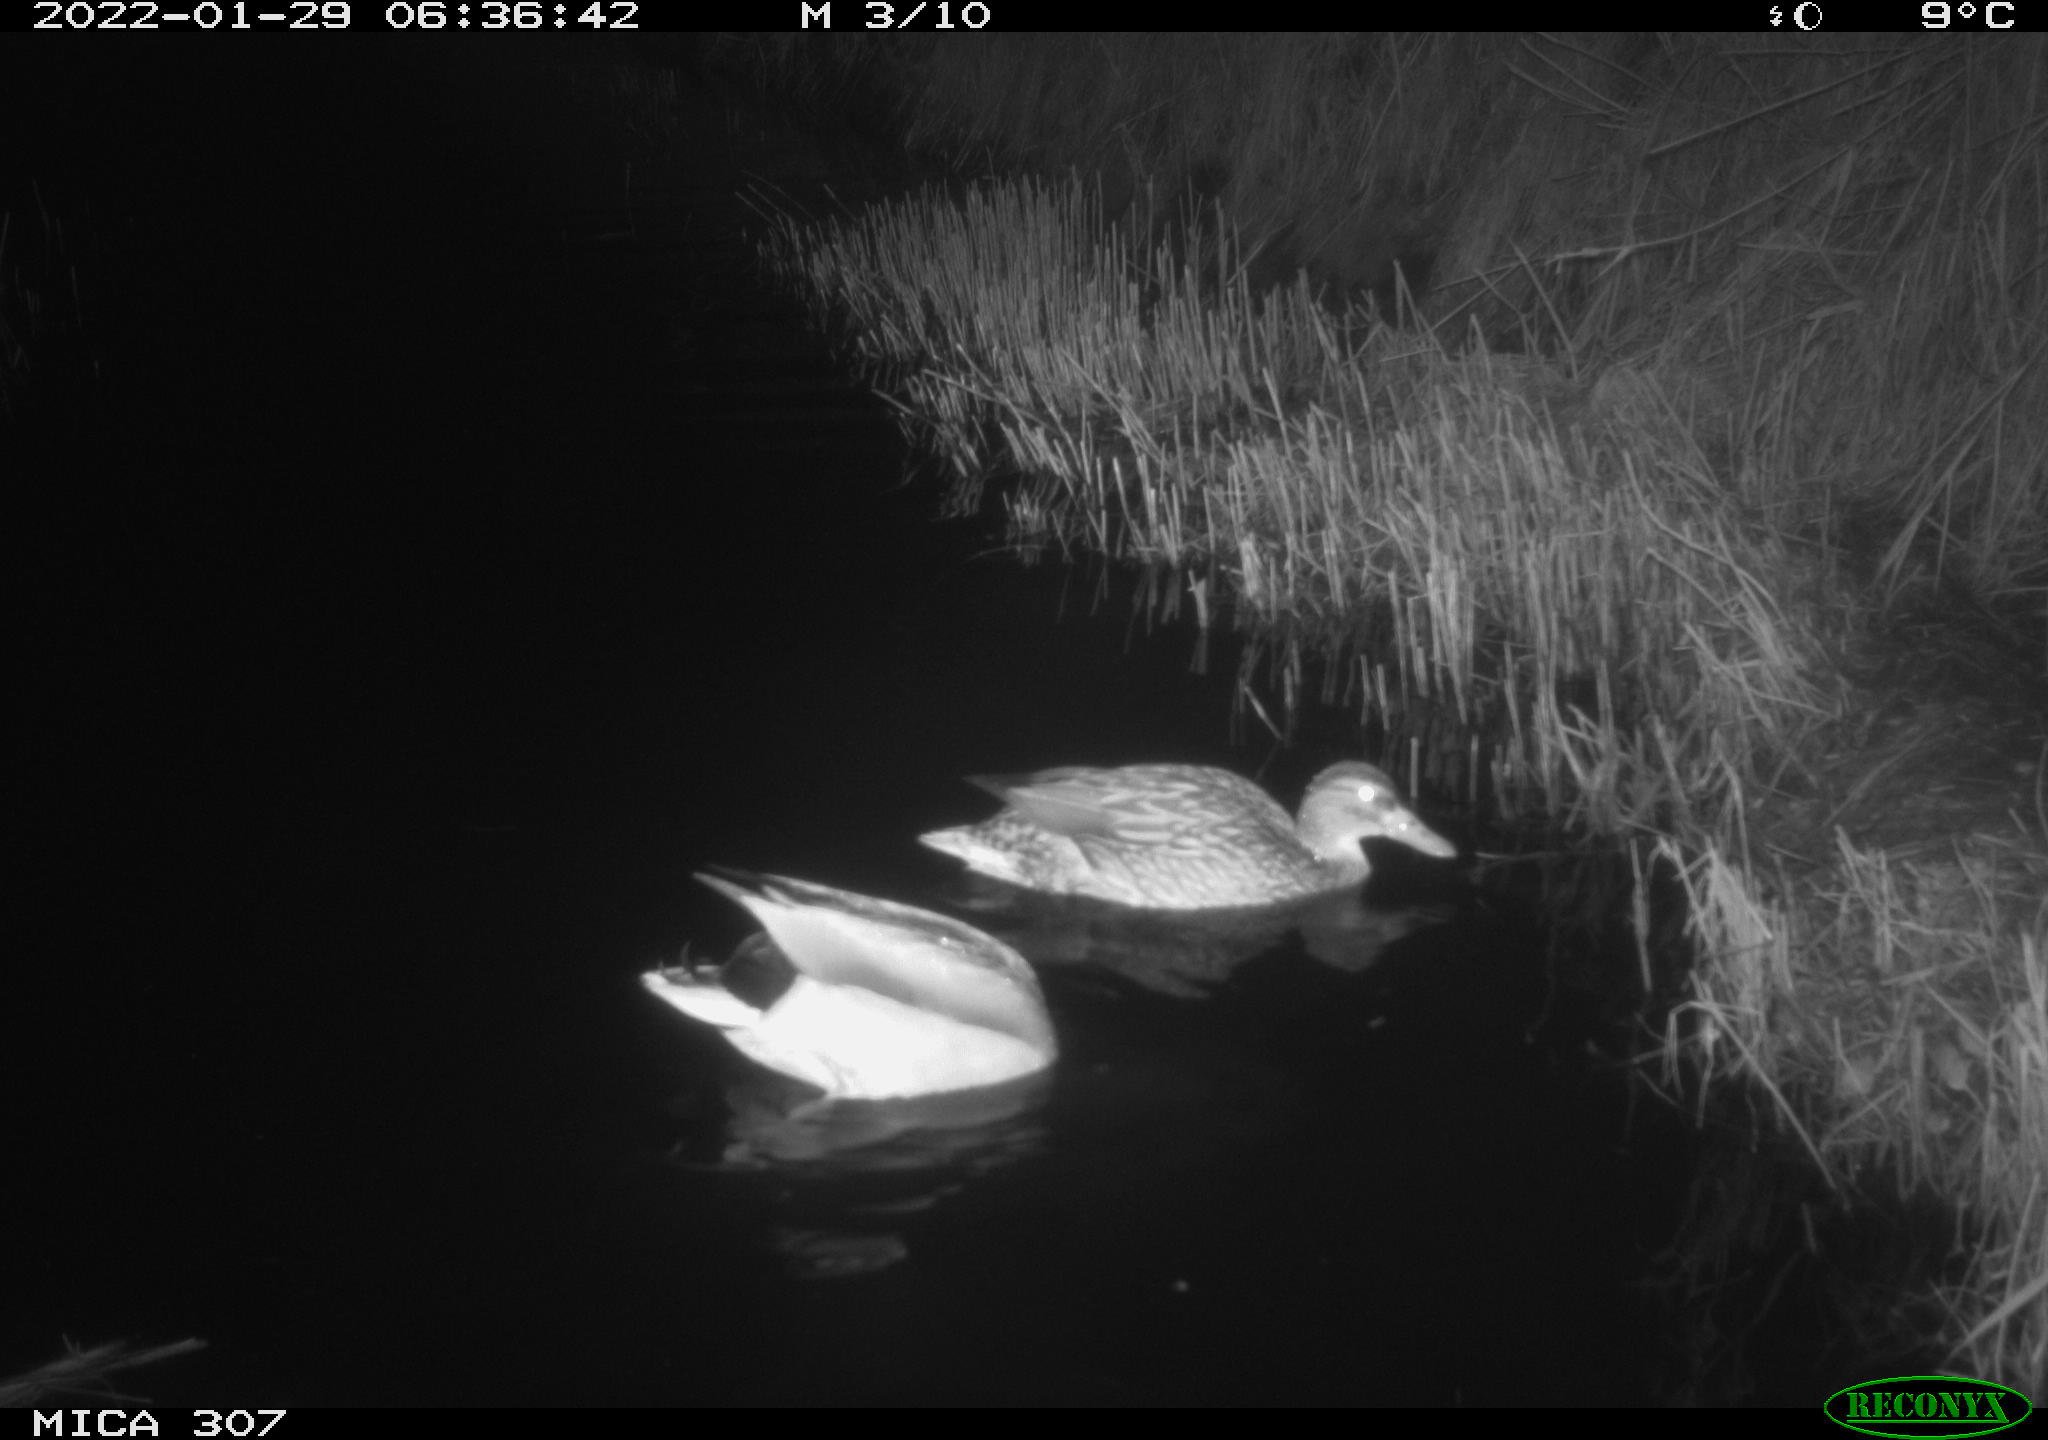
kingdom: Animalia
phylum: Chordata
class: Aves
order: Anseriformes
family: Anatidae
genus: Anas
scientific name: Anas
